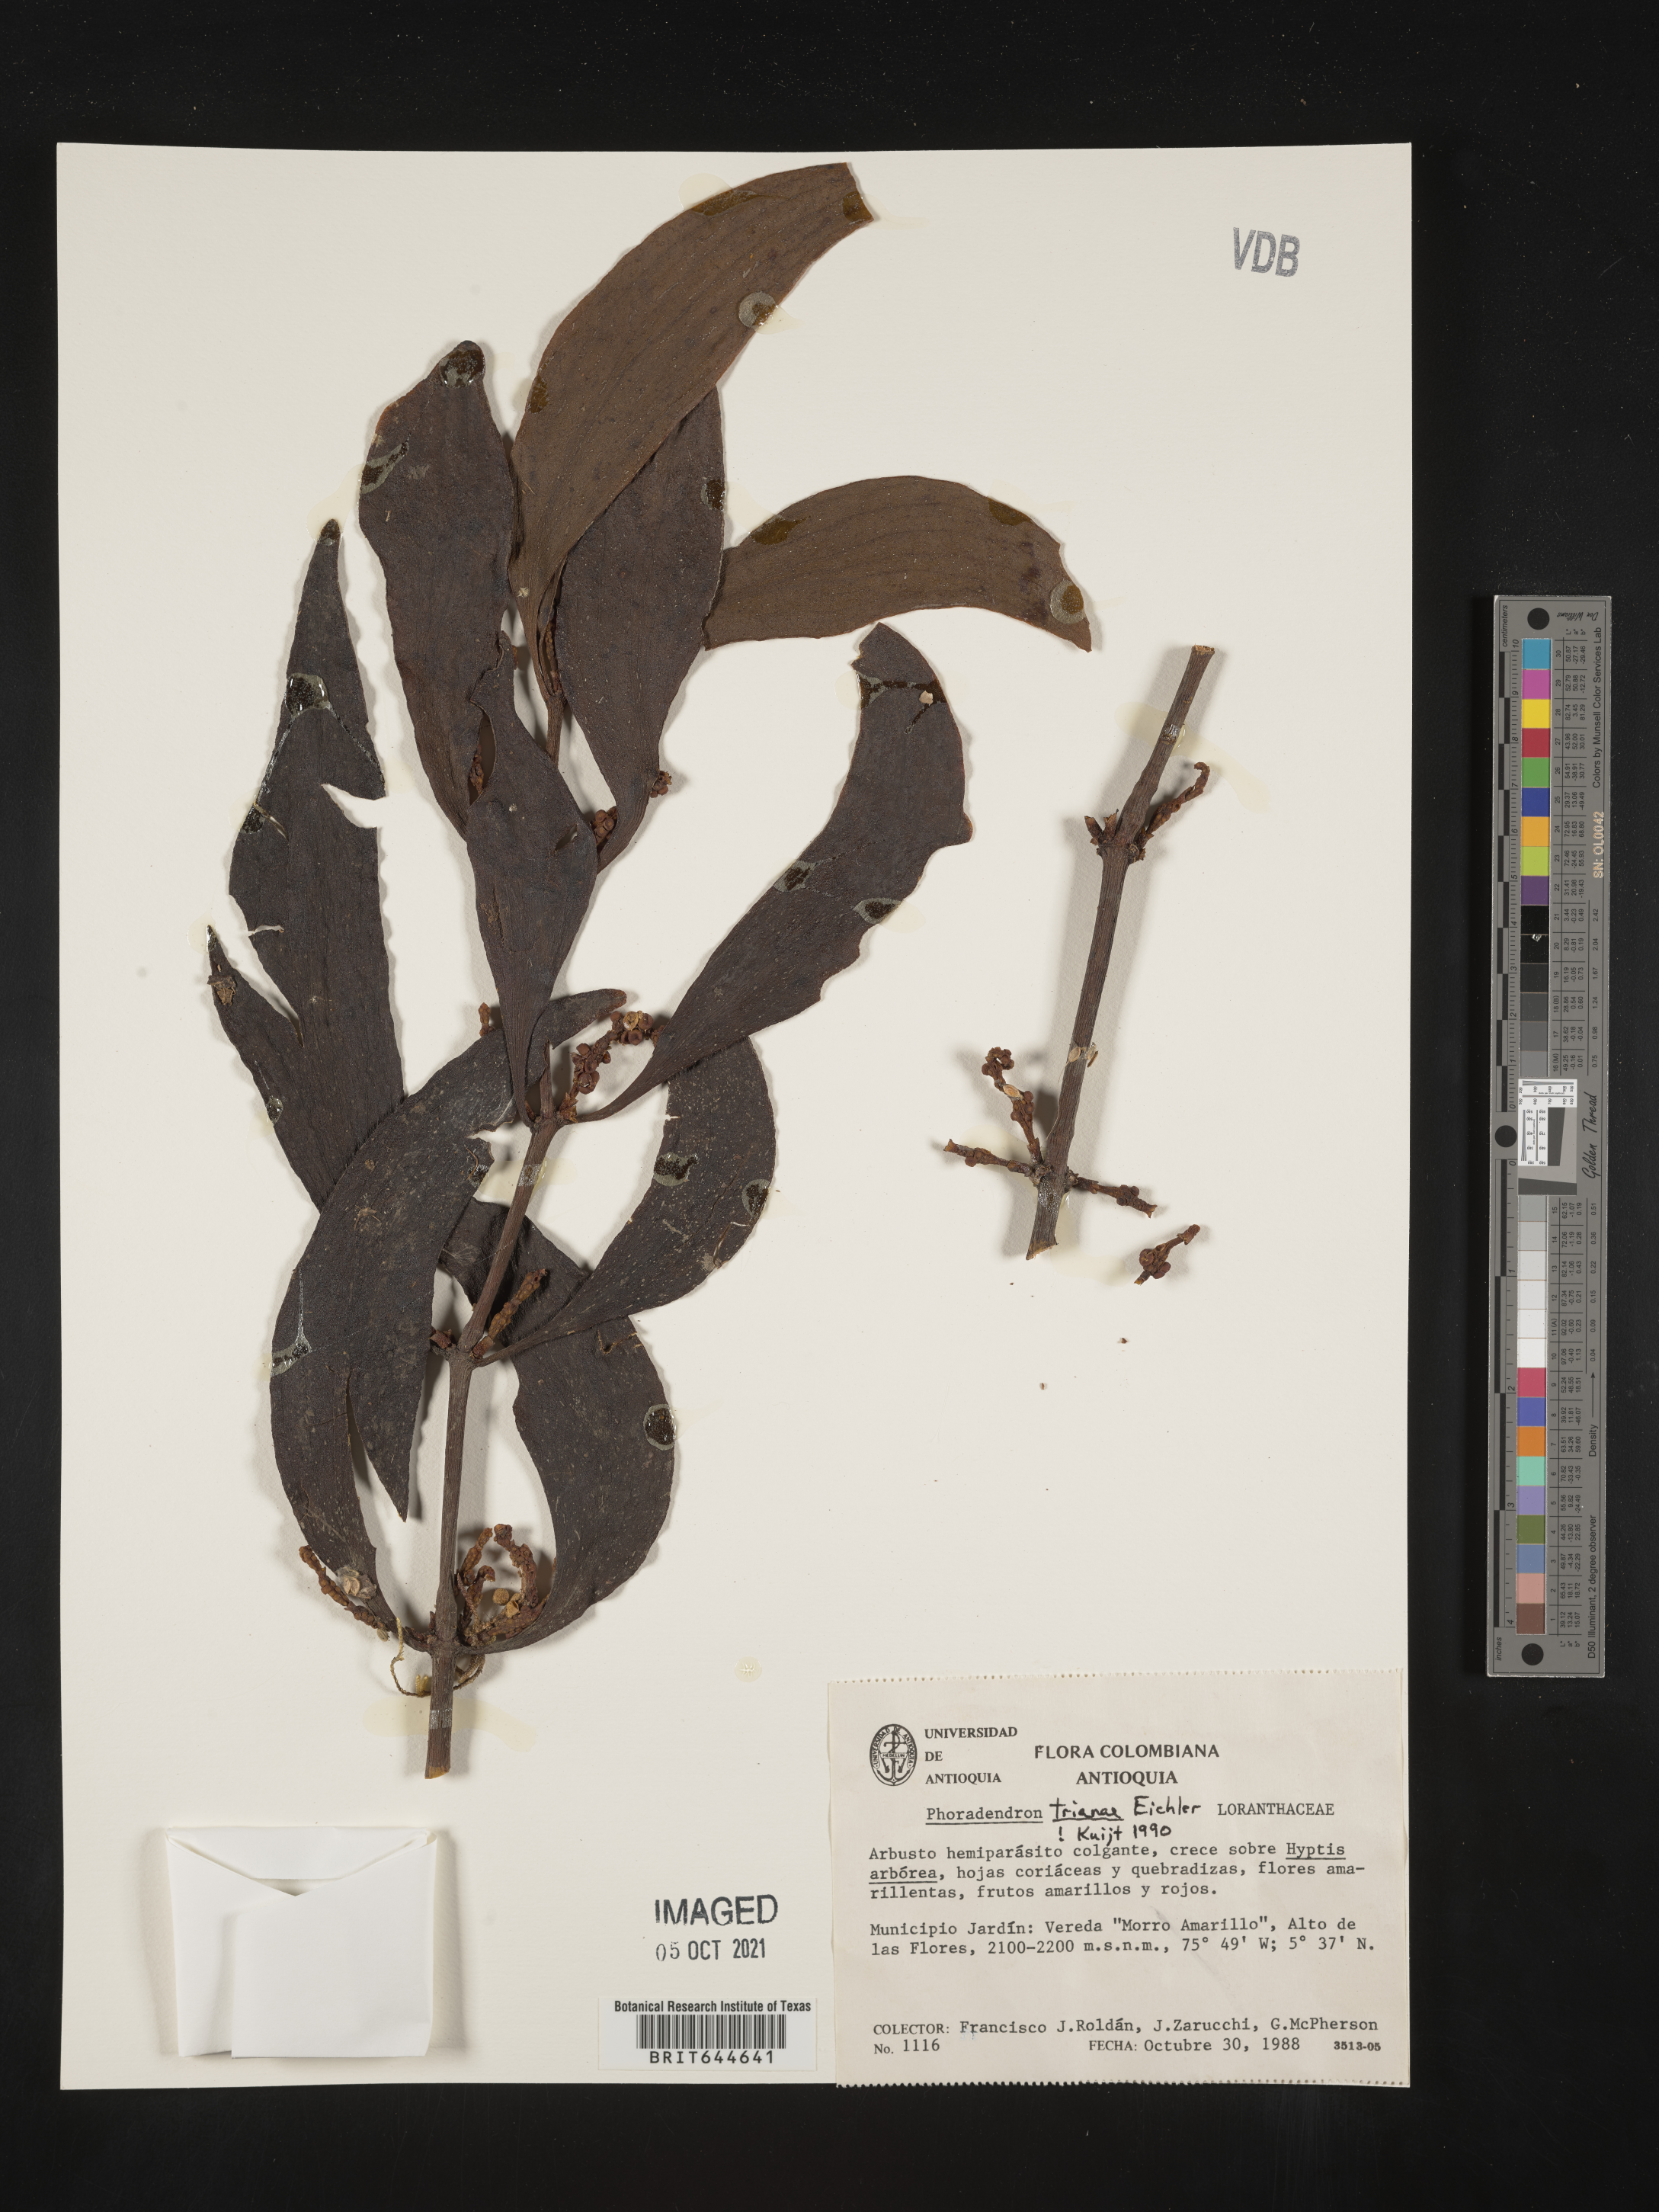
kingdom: Plantae
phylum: Tracheophyta
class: Magnoliopsida
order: Santalales
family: Viscaceae
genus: Phoradendron
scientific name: Phoradendron
